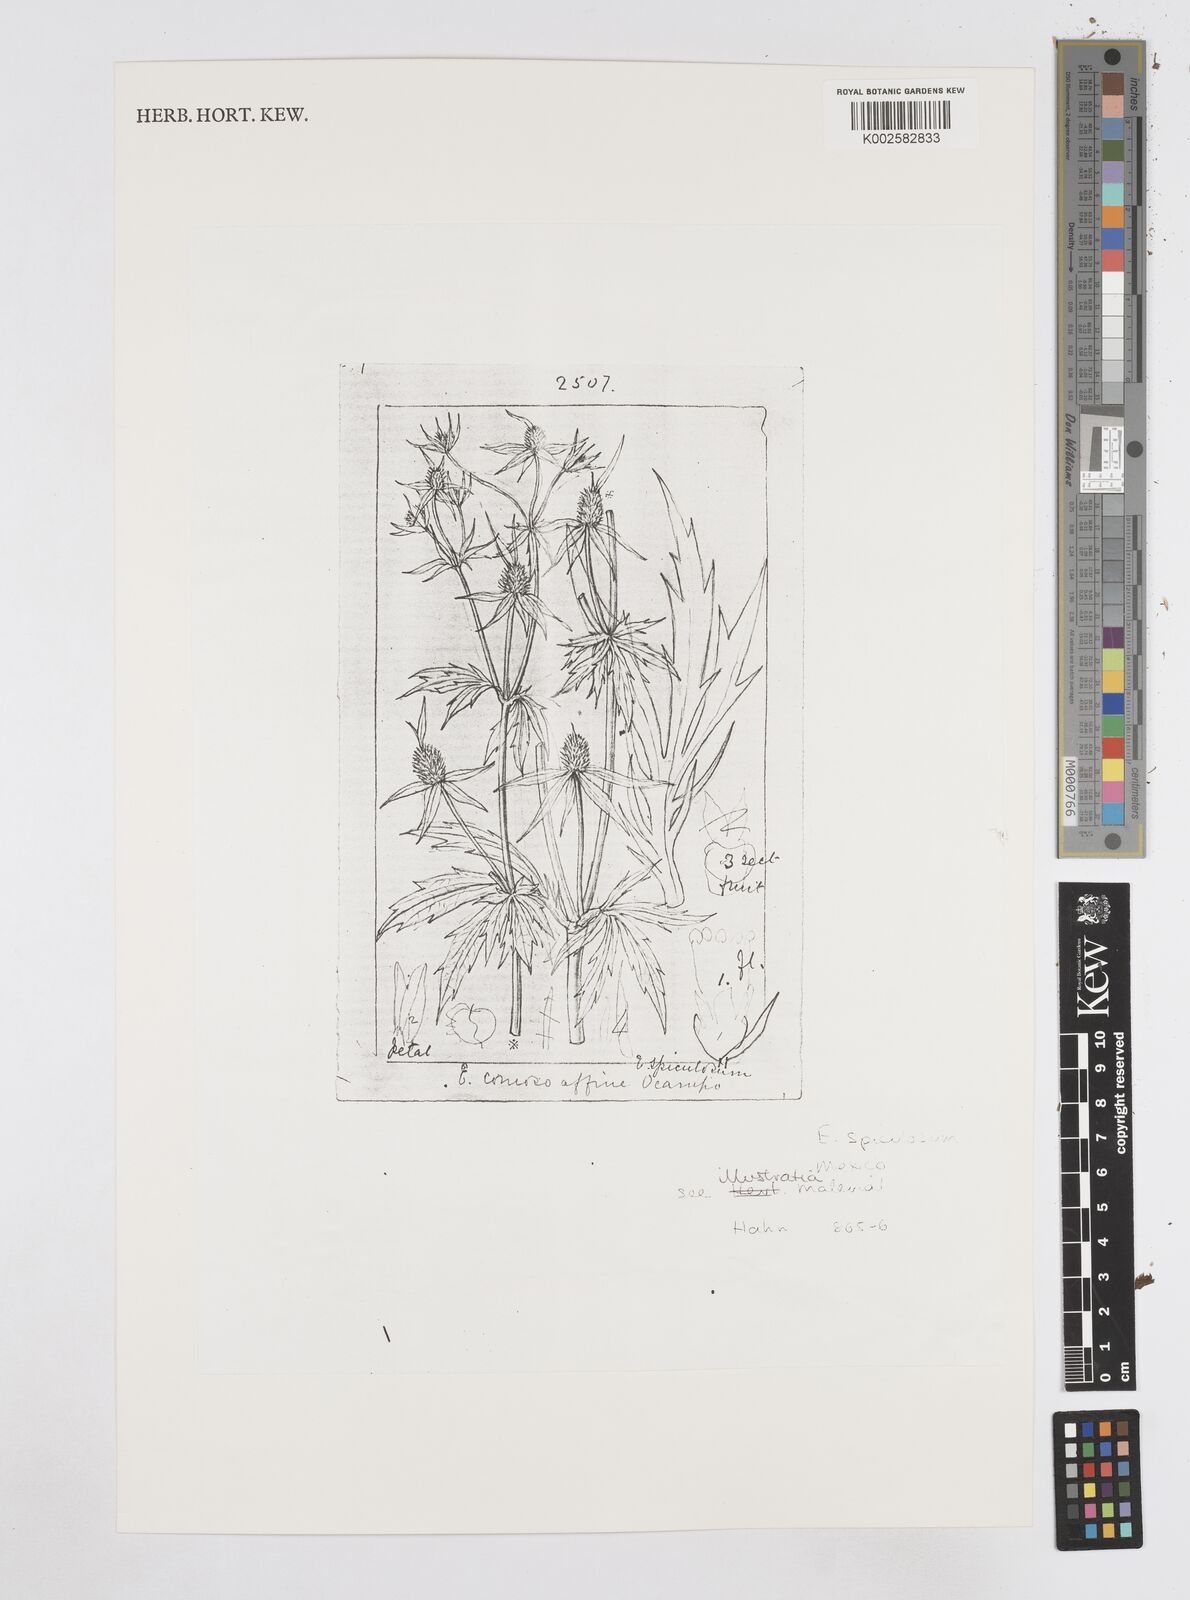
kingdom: Plantae
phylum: Tracheophyta
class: Magnoliopsida
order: Apiales
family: Apiaceae
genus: Eryngium
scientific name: Eryngium haenkei
